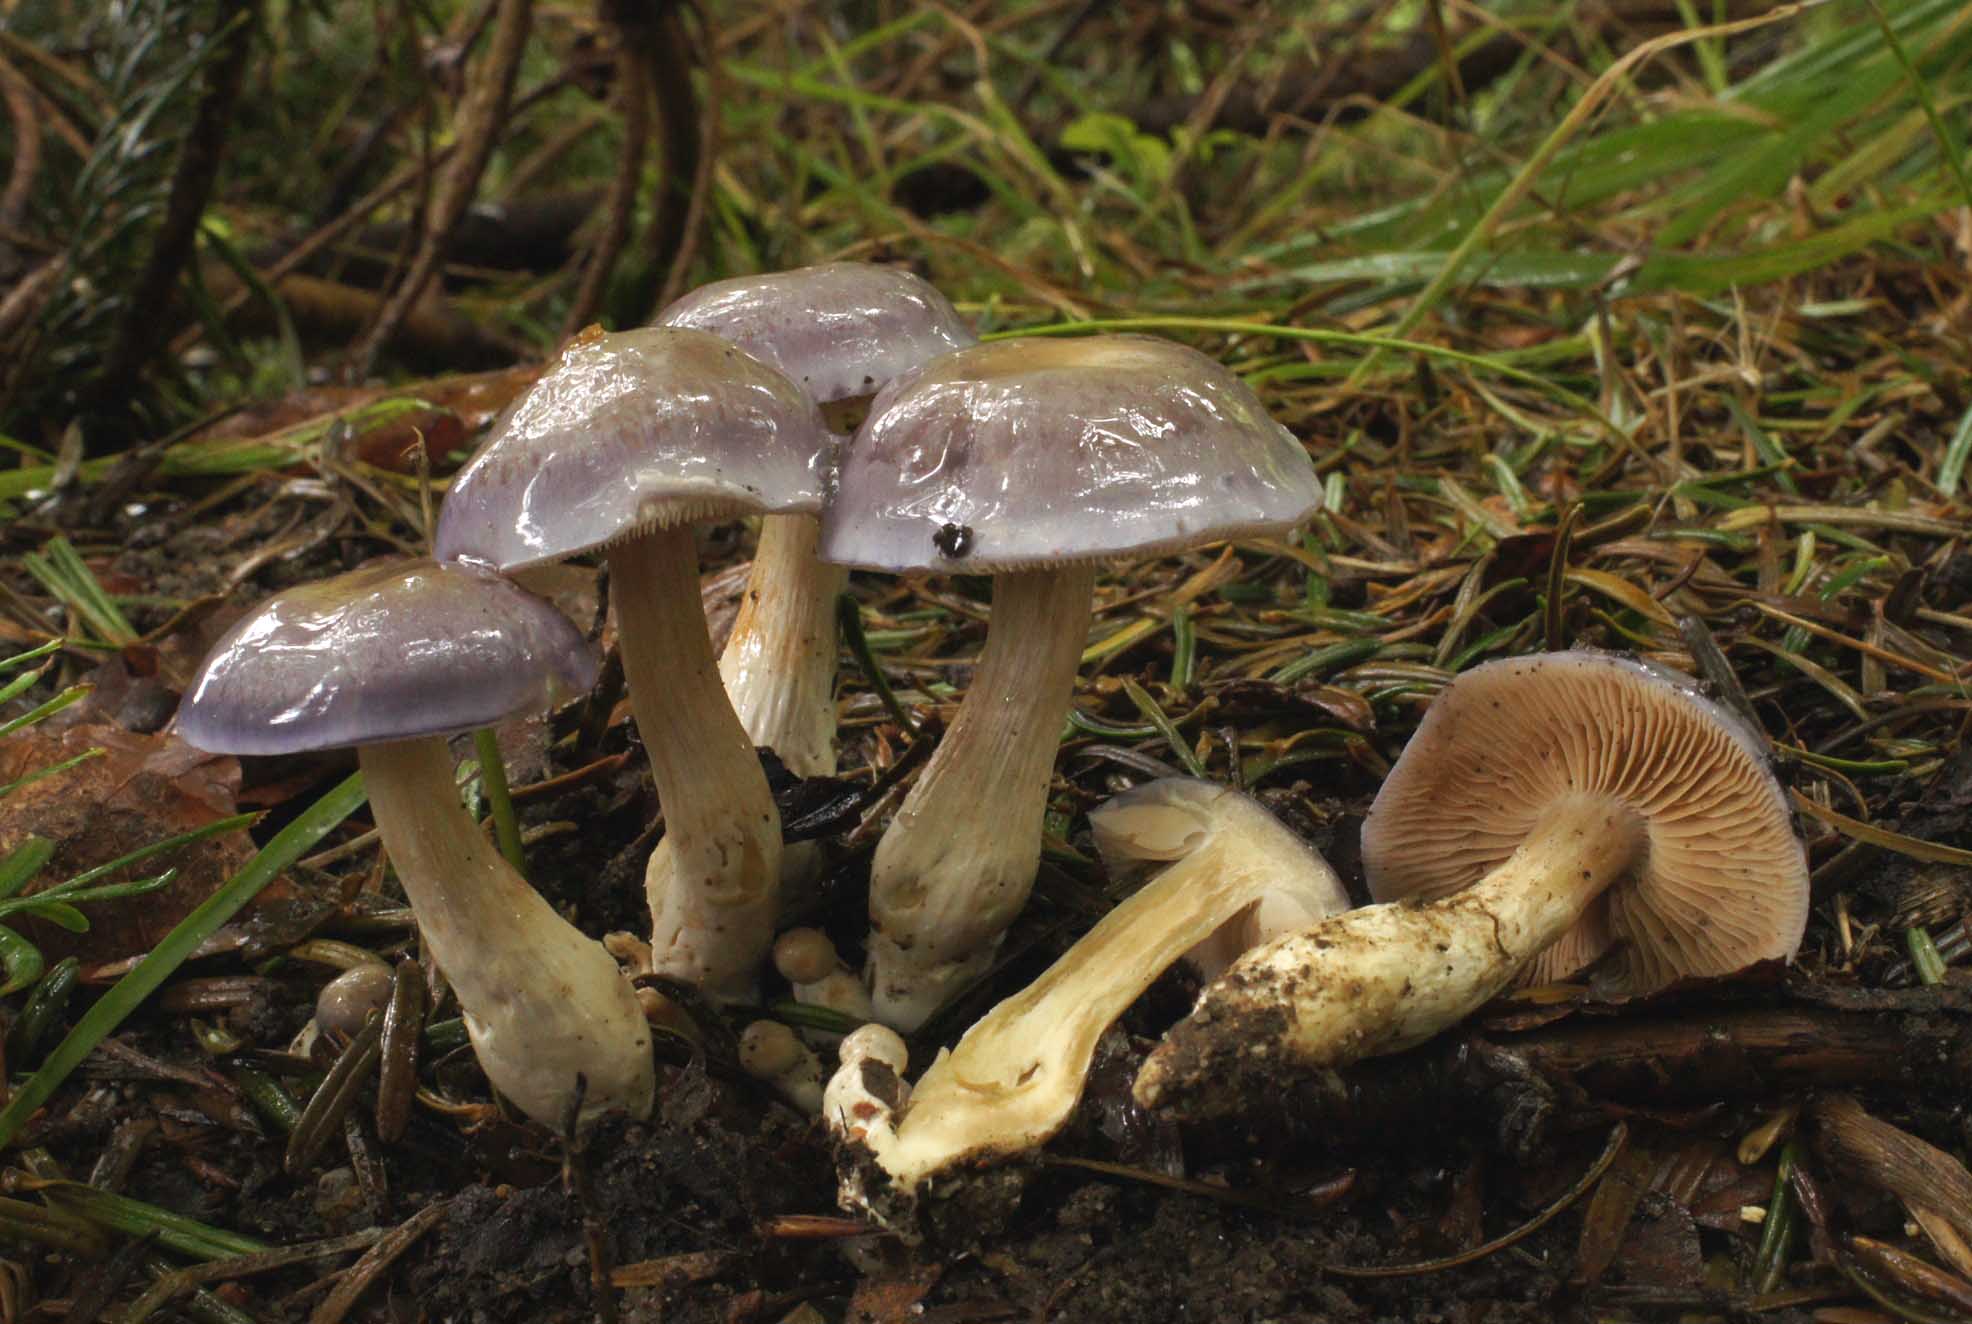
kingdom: Fungi
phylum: Basidiomycota
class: Agaricomycetes
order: Agaricales
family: Cortinariaceae
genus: Thaxterogaster
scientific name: Thaxterogaster croceocoeruleus
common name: blågullig slørhat
